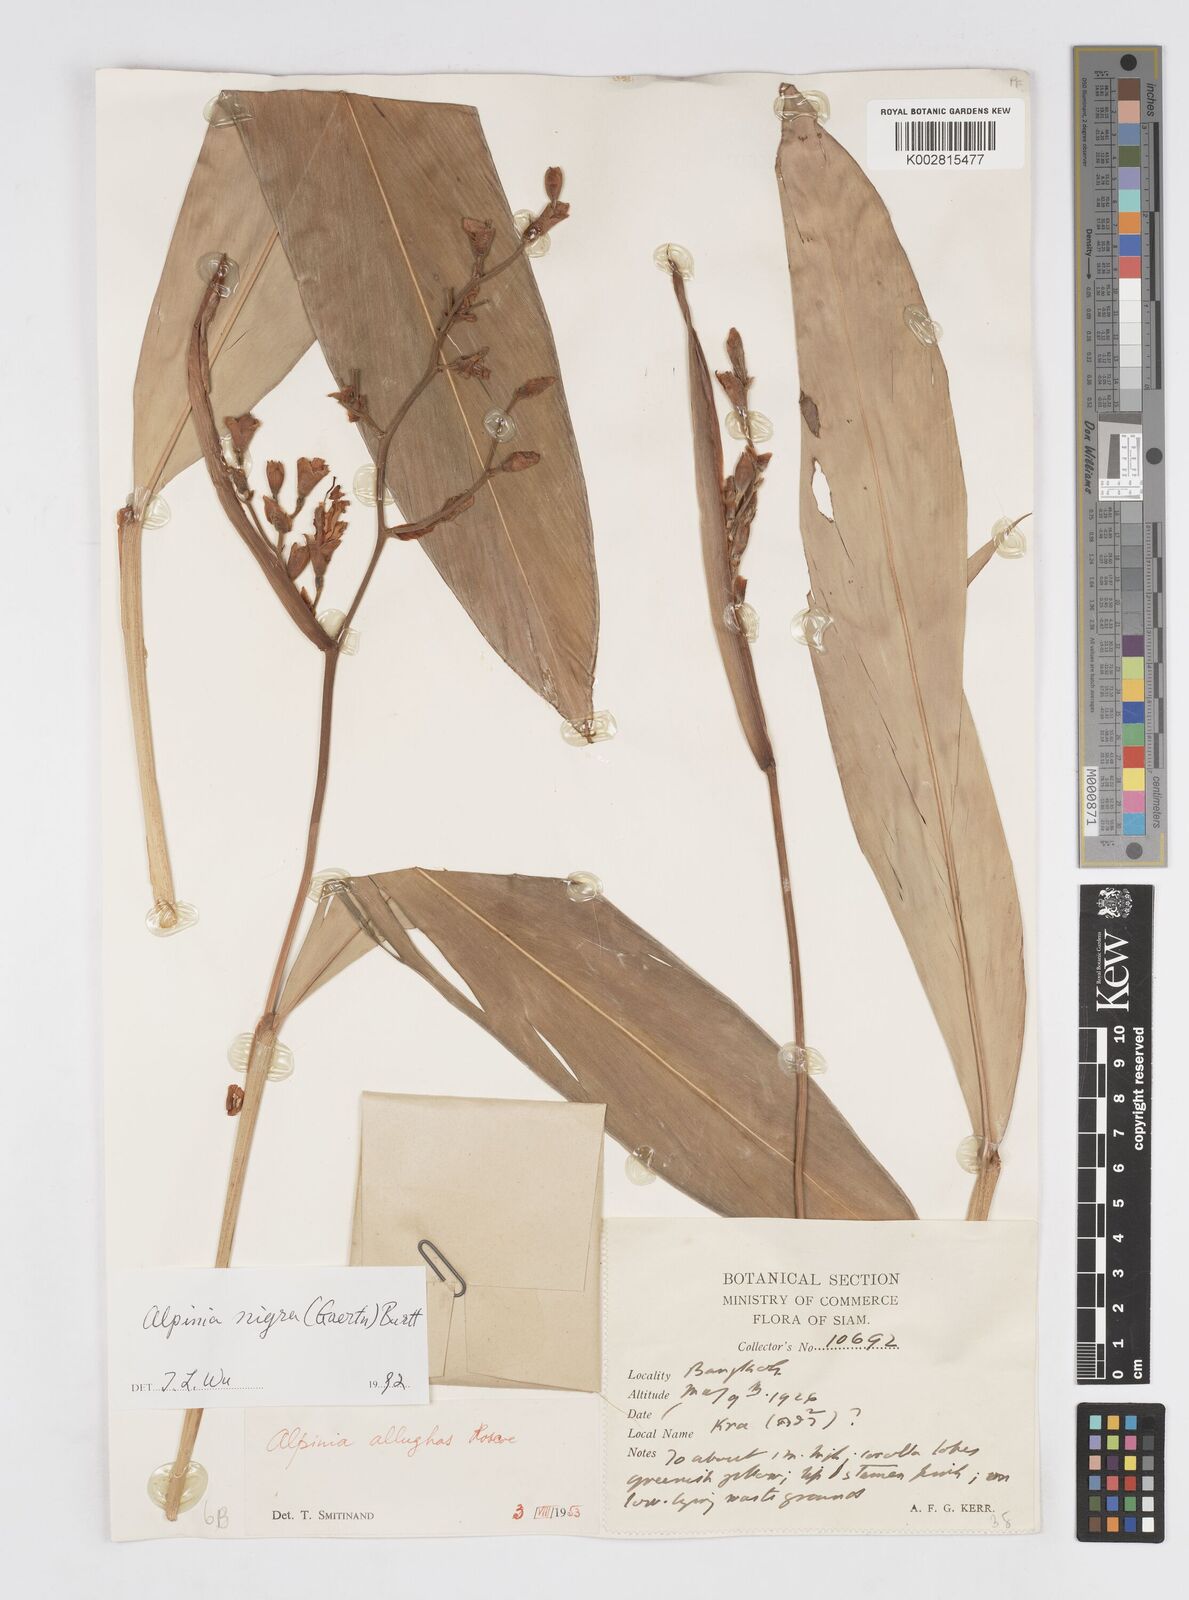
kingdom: Plantae
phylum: Tracheophyta
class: Liliopsida
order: Zingiberales
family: Zingiberaceae
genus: Alpinia
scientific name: Alpinia nigra
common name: Black fruited galanga
